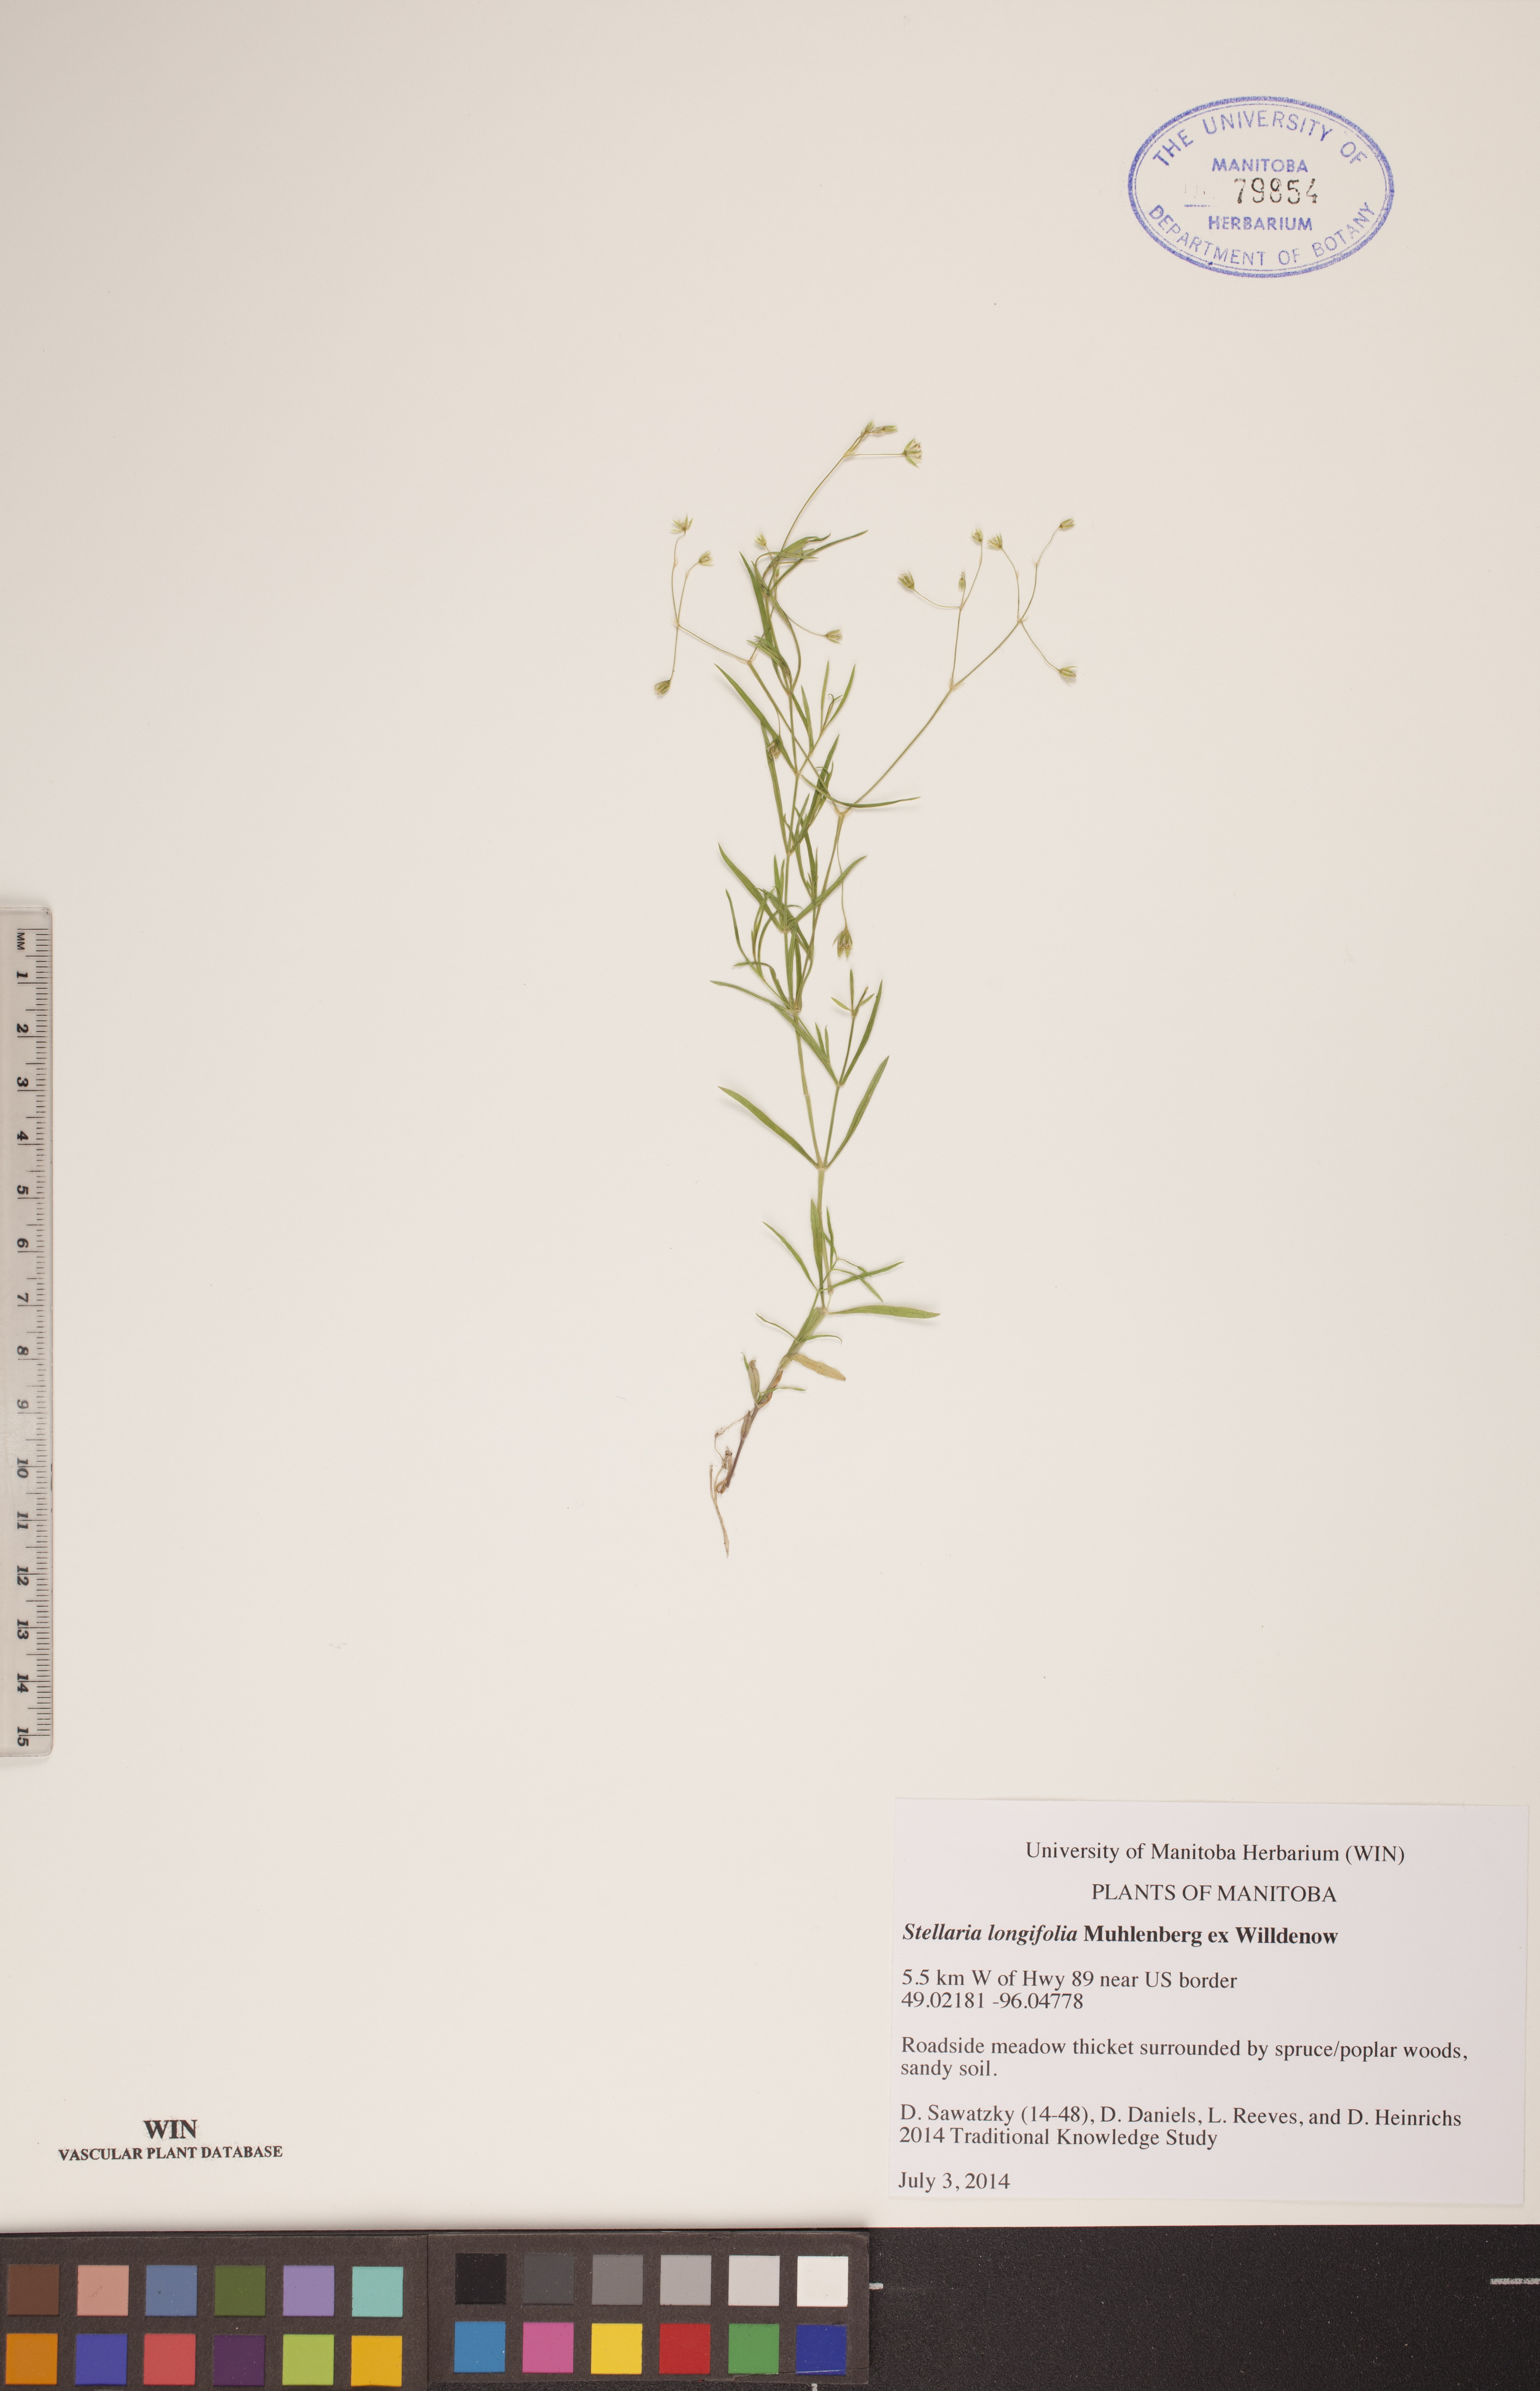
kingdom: Plantae
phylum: Tracheophyta
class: Magnoliopsida
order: Caryophyllales
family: Caryophyllaceae
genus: Stellaria
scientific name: Stellaria longifolia
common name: Long-leaved chickweed
